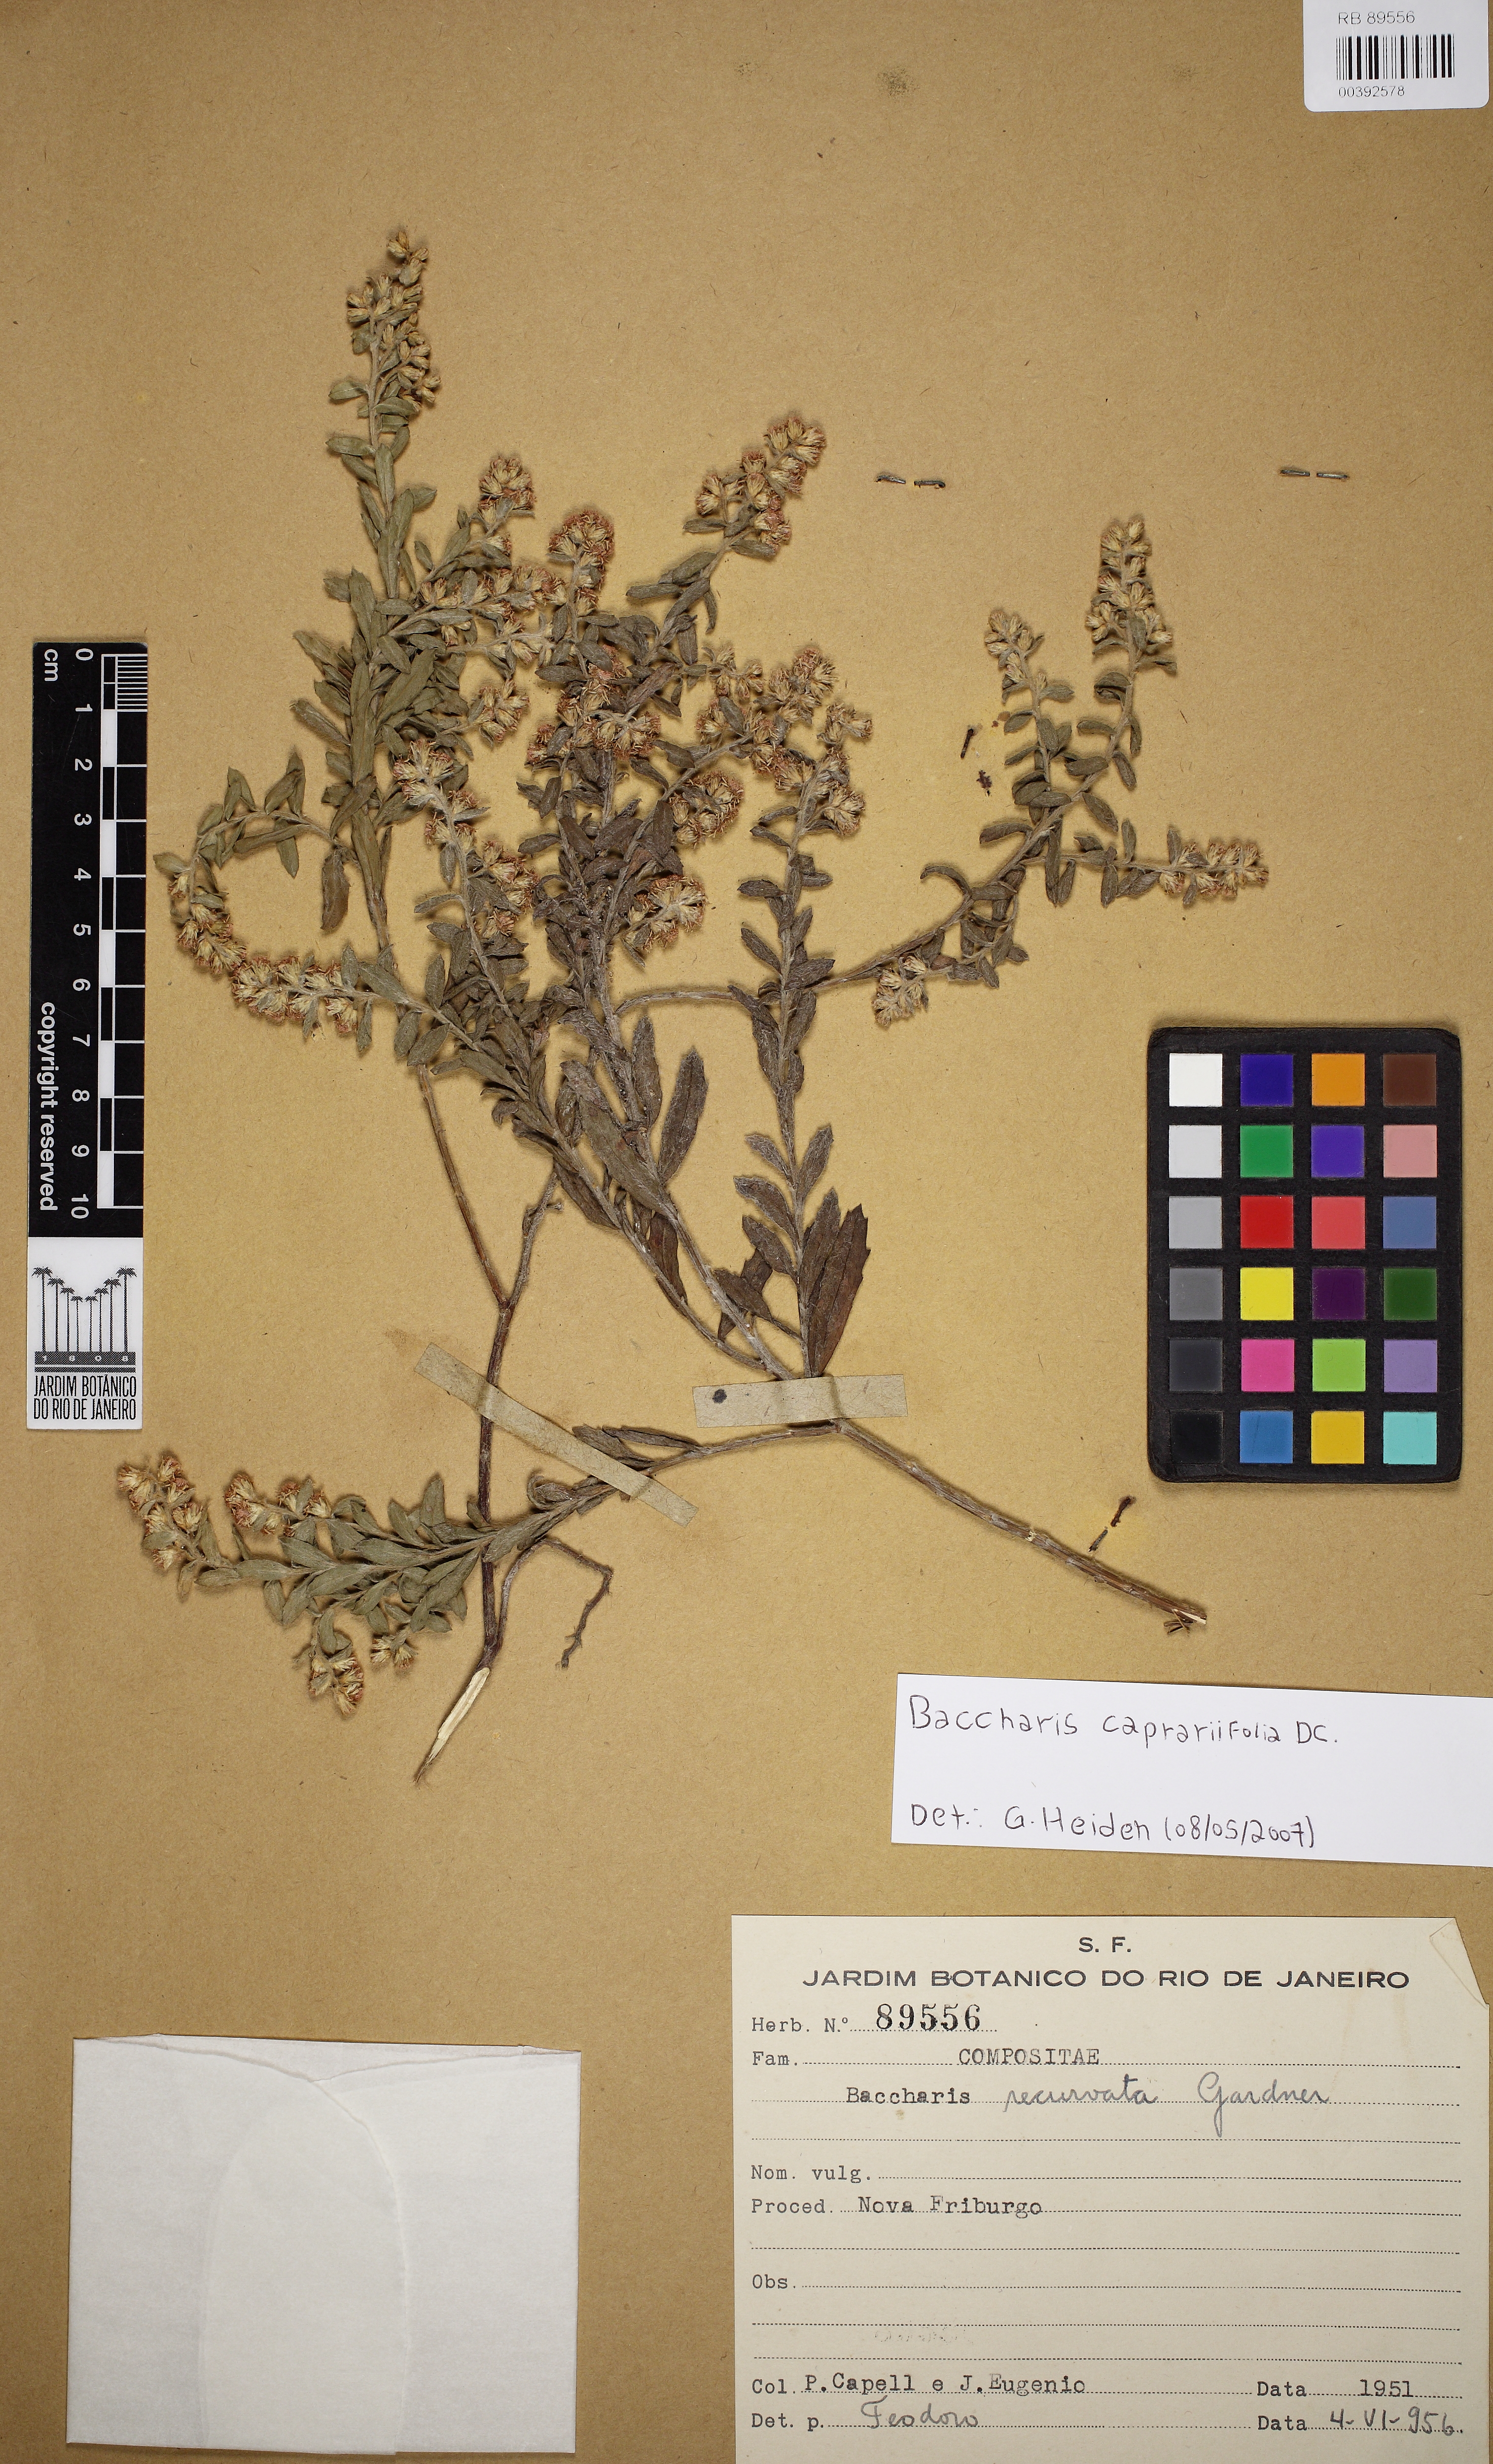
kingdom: Plantae
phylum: Tracheophyta
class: Magnoliopsida
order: Asterales
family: Asteraceae
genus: Baccharis
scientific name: Baccharis caprariifolia
